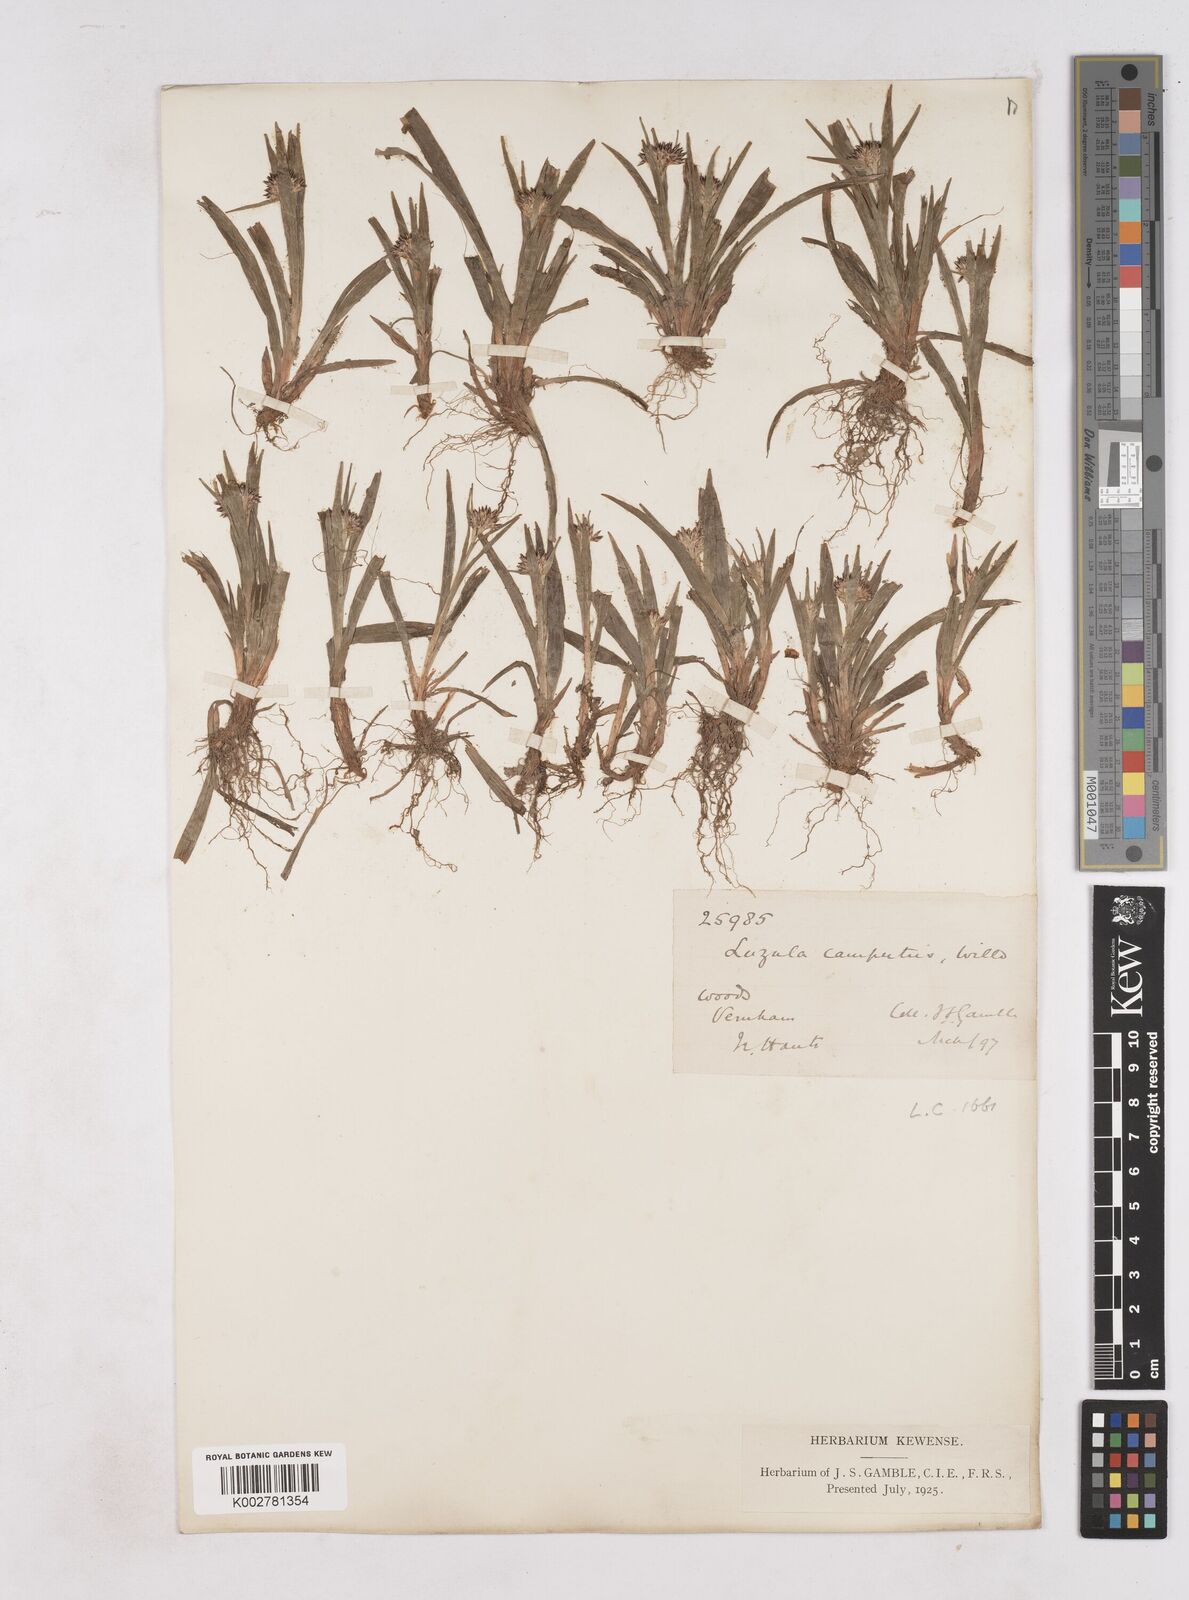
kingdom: Plantae
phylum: Tracheophyta
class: Liliopsida
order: Poales
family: Juncaceae
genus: Luzula
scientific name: Luzula pilosa
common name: Hairy wood-rush
